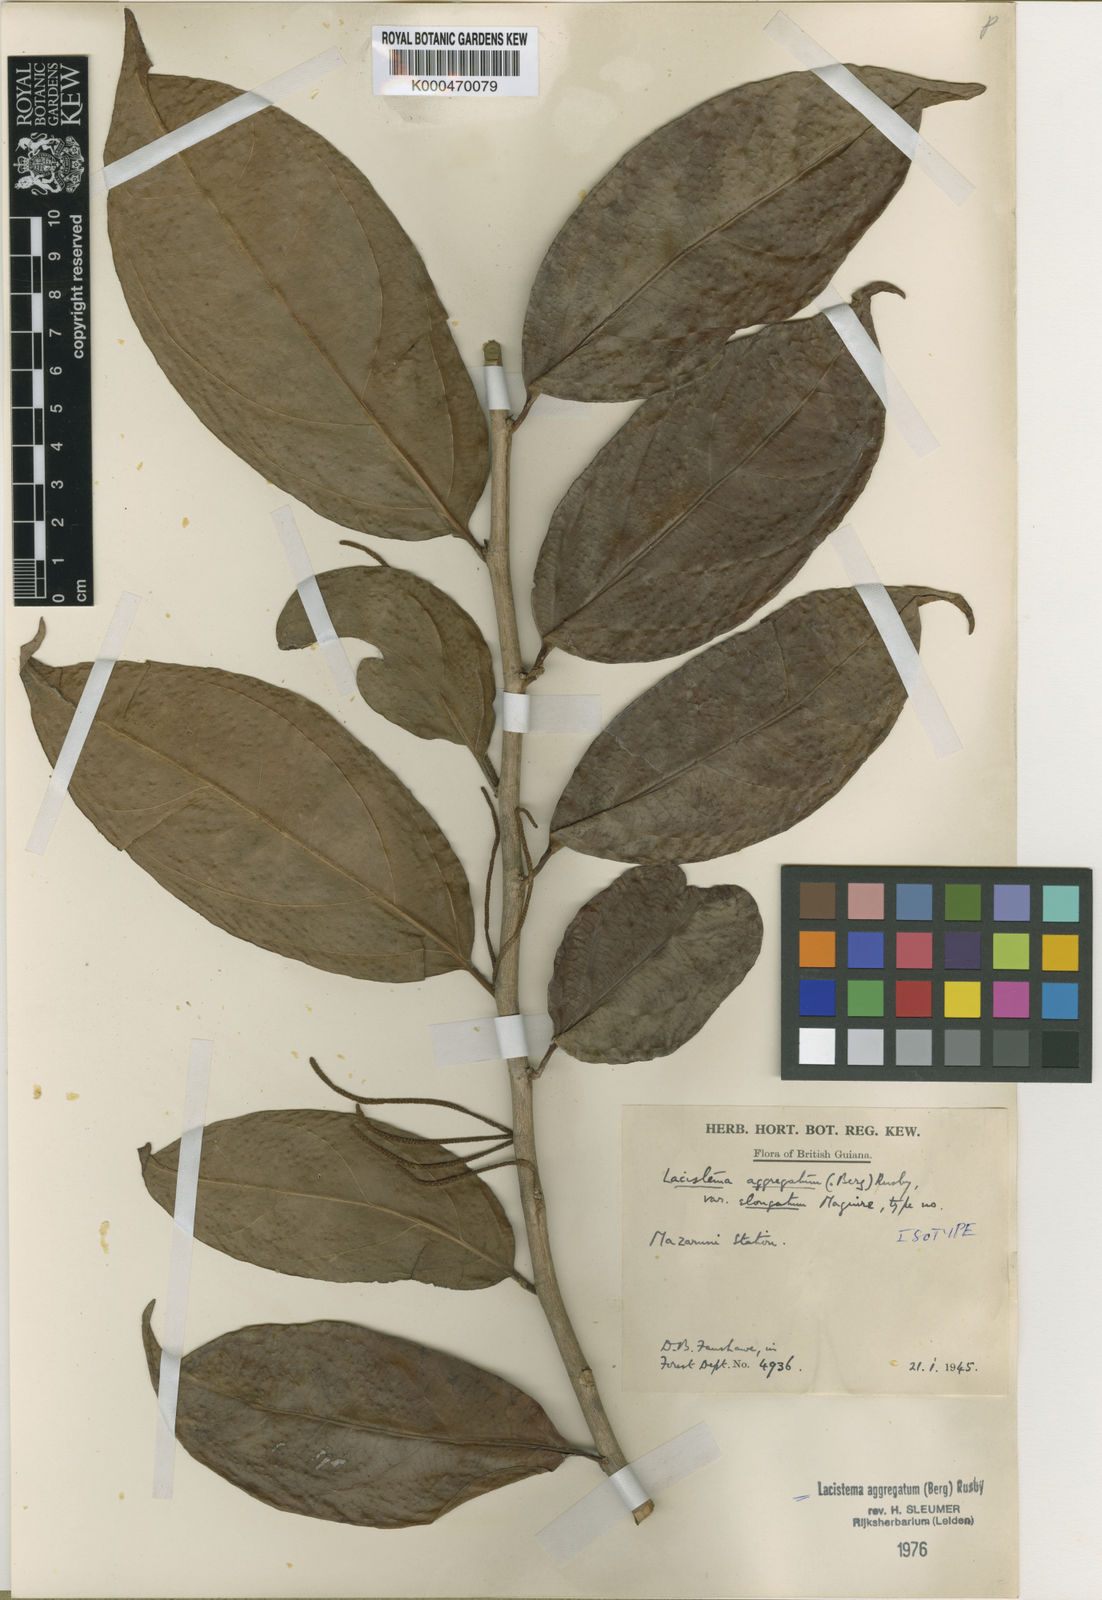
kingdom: Plantae
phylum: Tracheophyta
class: Magnoliopsida
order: Malpighiales
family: Lacistemataceae
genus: Lacistema
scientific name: Lacistema aggregatum
